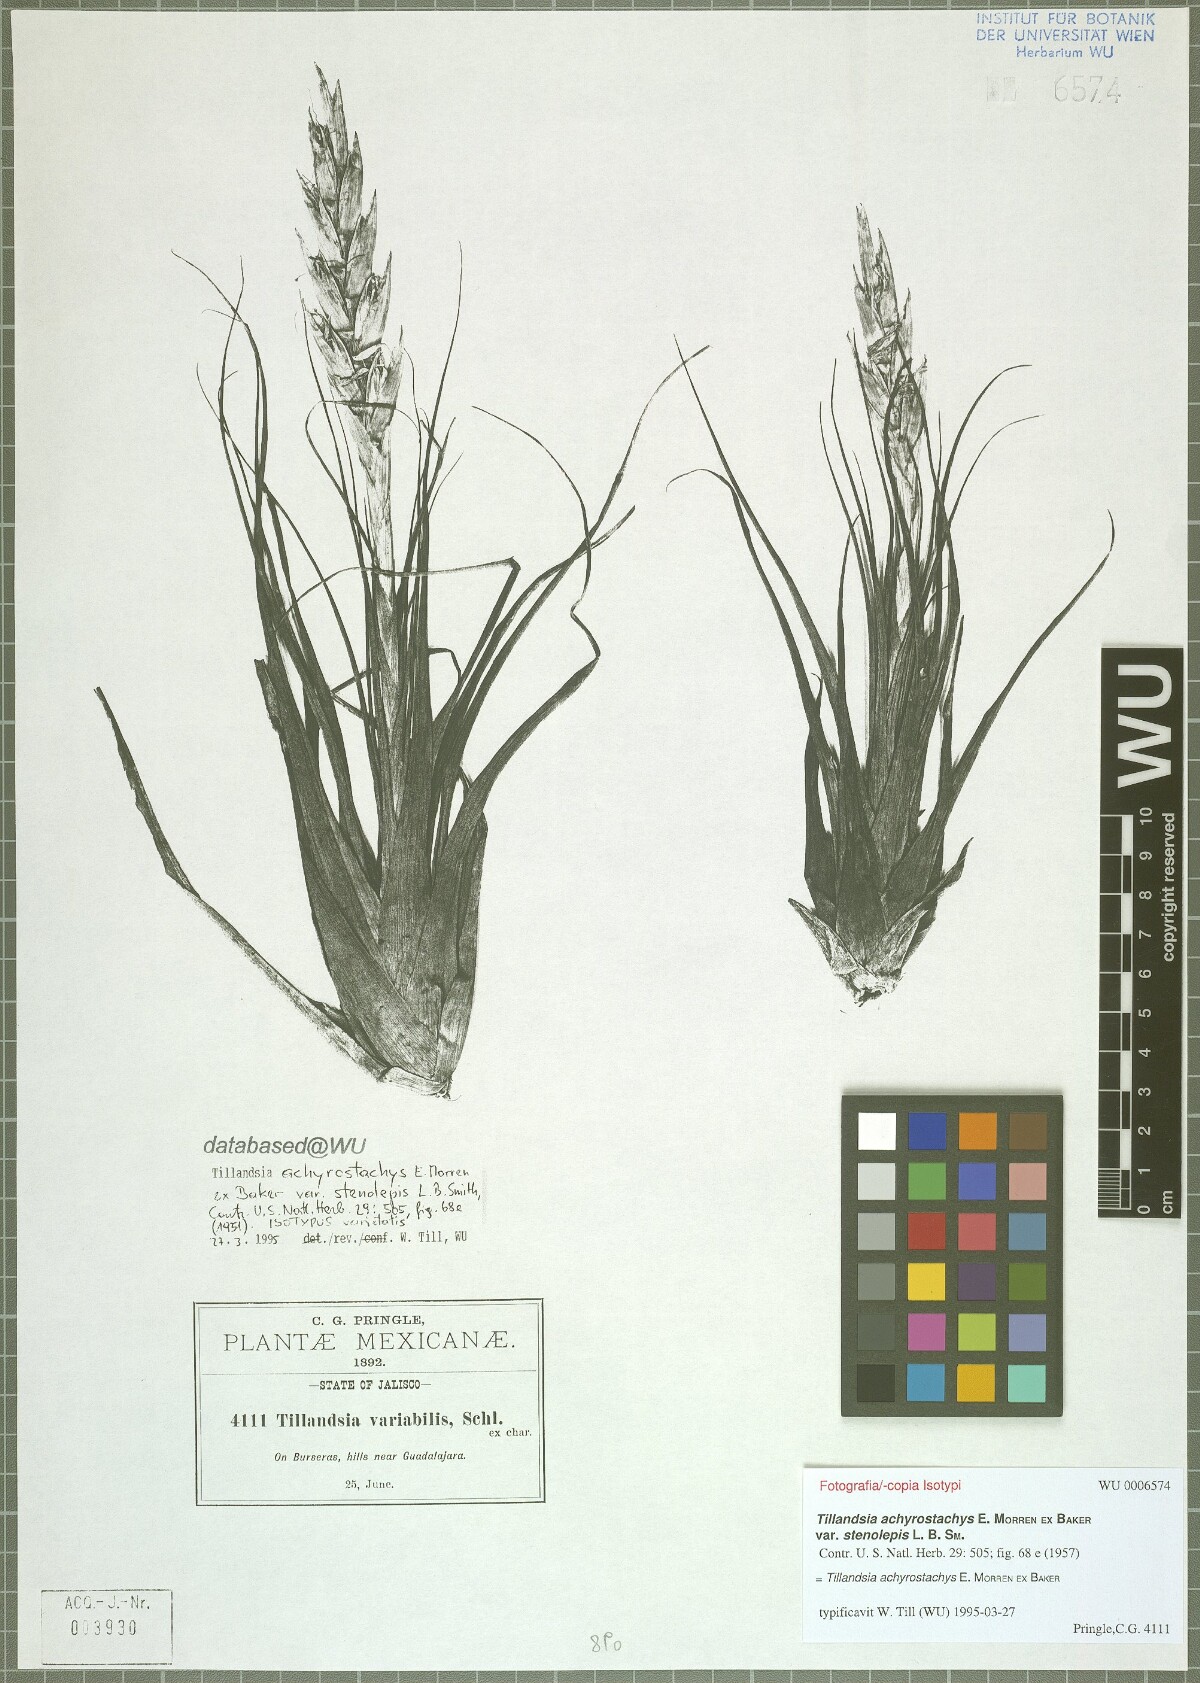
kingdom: Plantae
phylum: Tracheophyta
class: Liliopsida
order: Poales
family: Bromeliaceae
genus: Tillandsia
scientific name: Tillandsia achyrostachys
